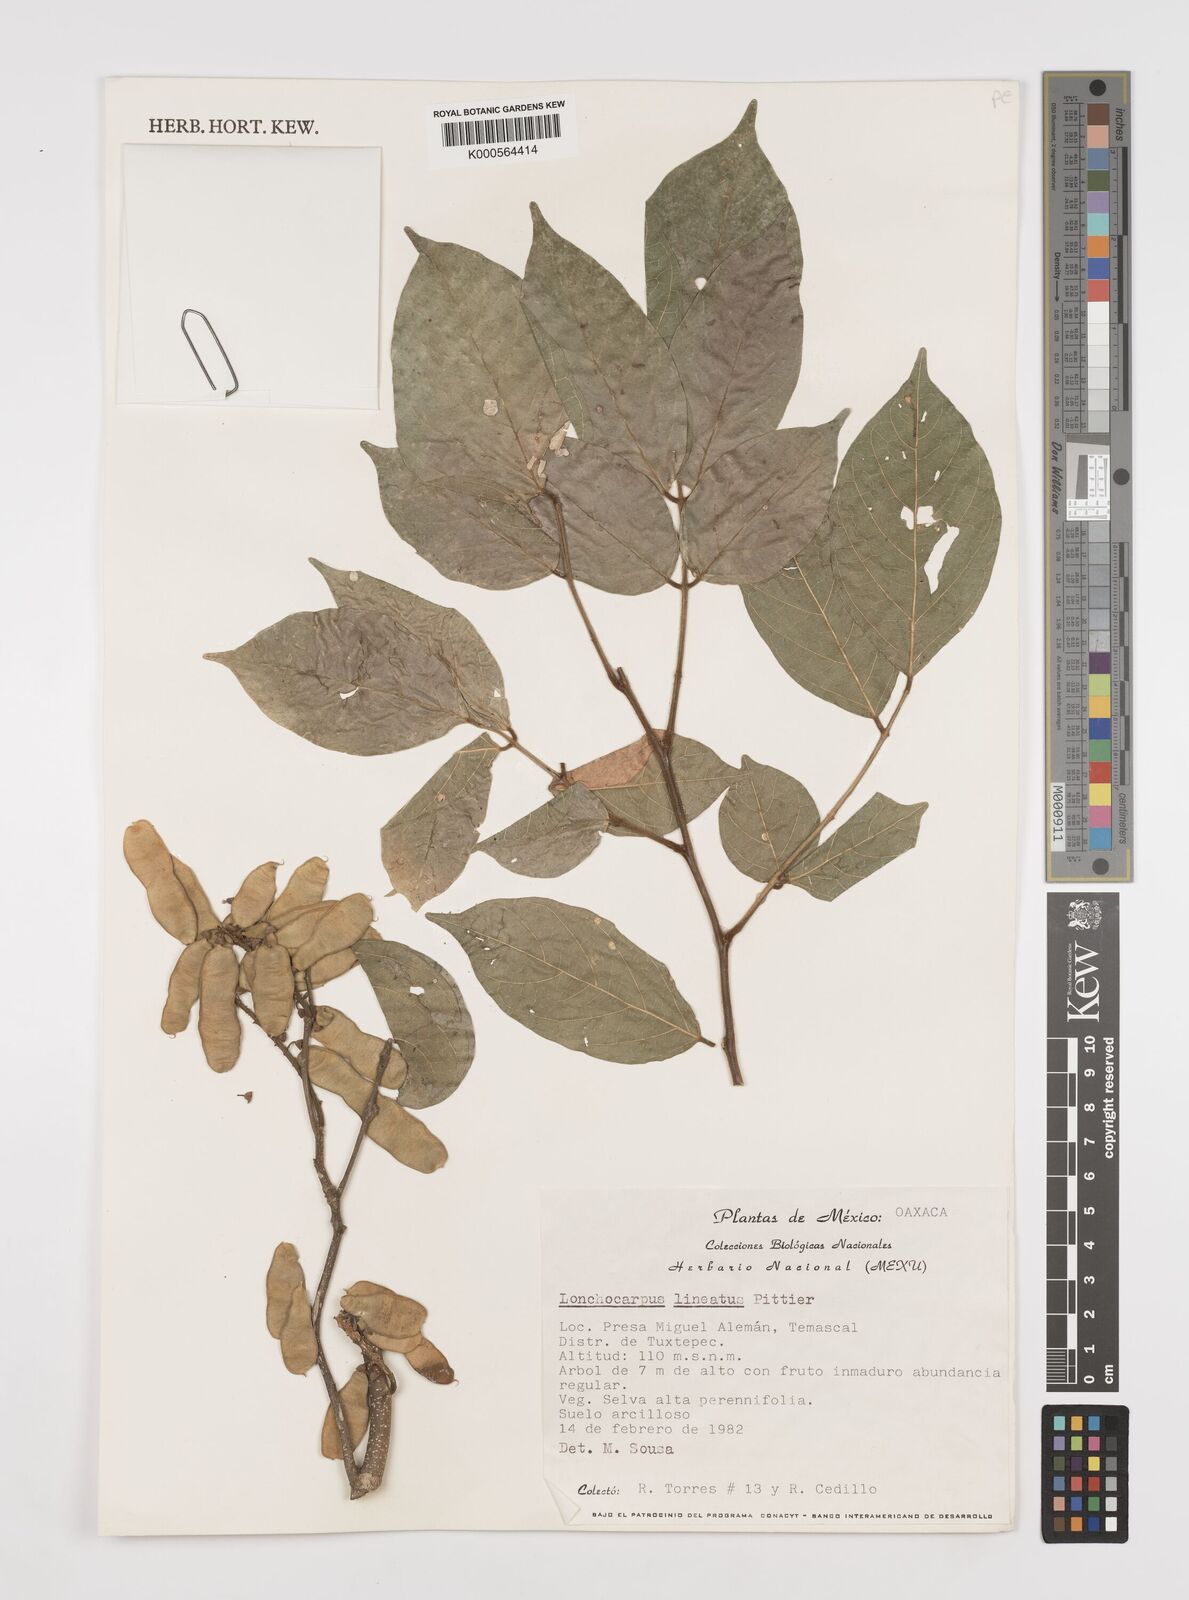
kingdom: Plantae
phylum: Tracheophyta
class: Magnoliopsida
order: Fabales
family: Fabaceae
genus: Lonchocarpus
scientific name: Lonchocarpus lineatus
